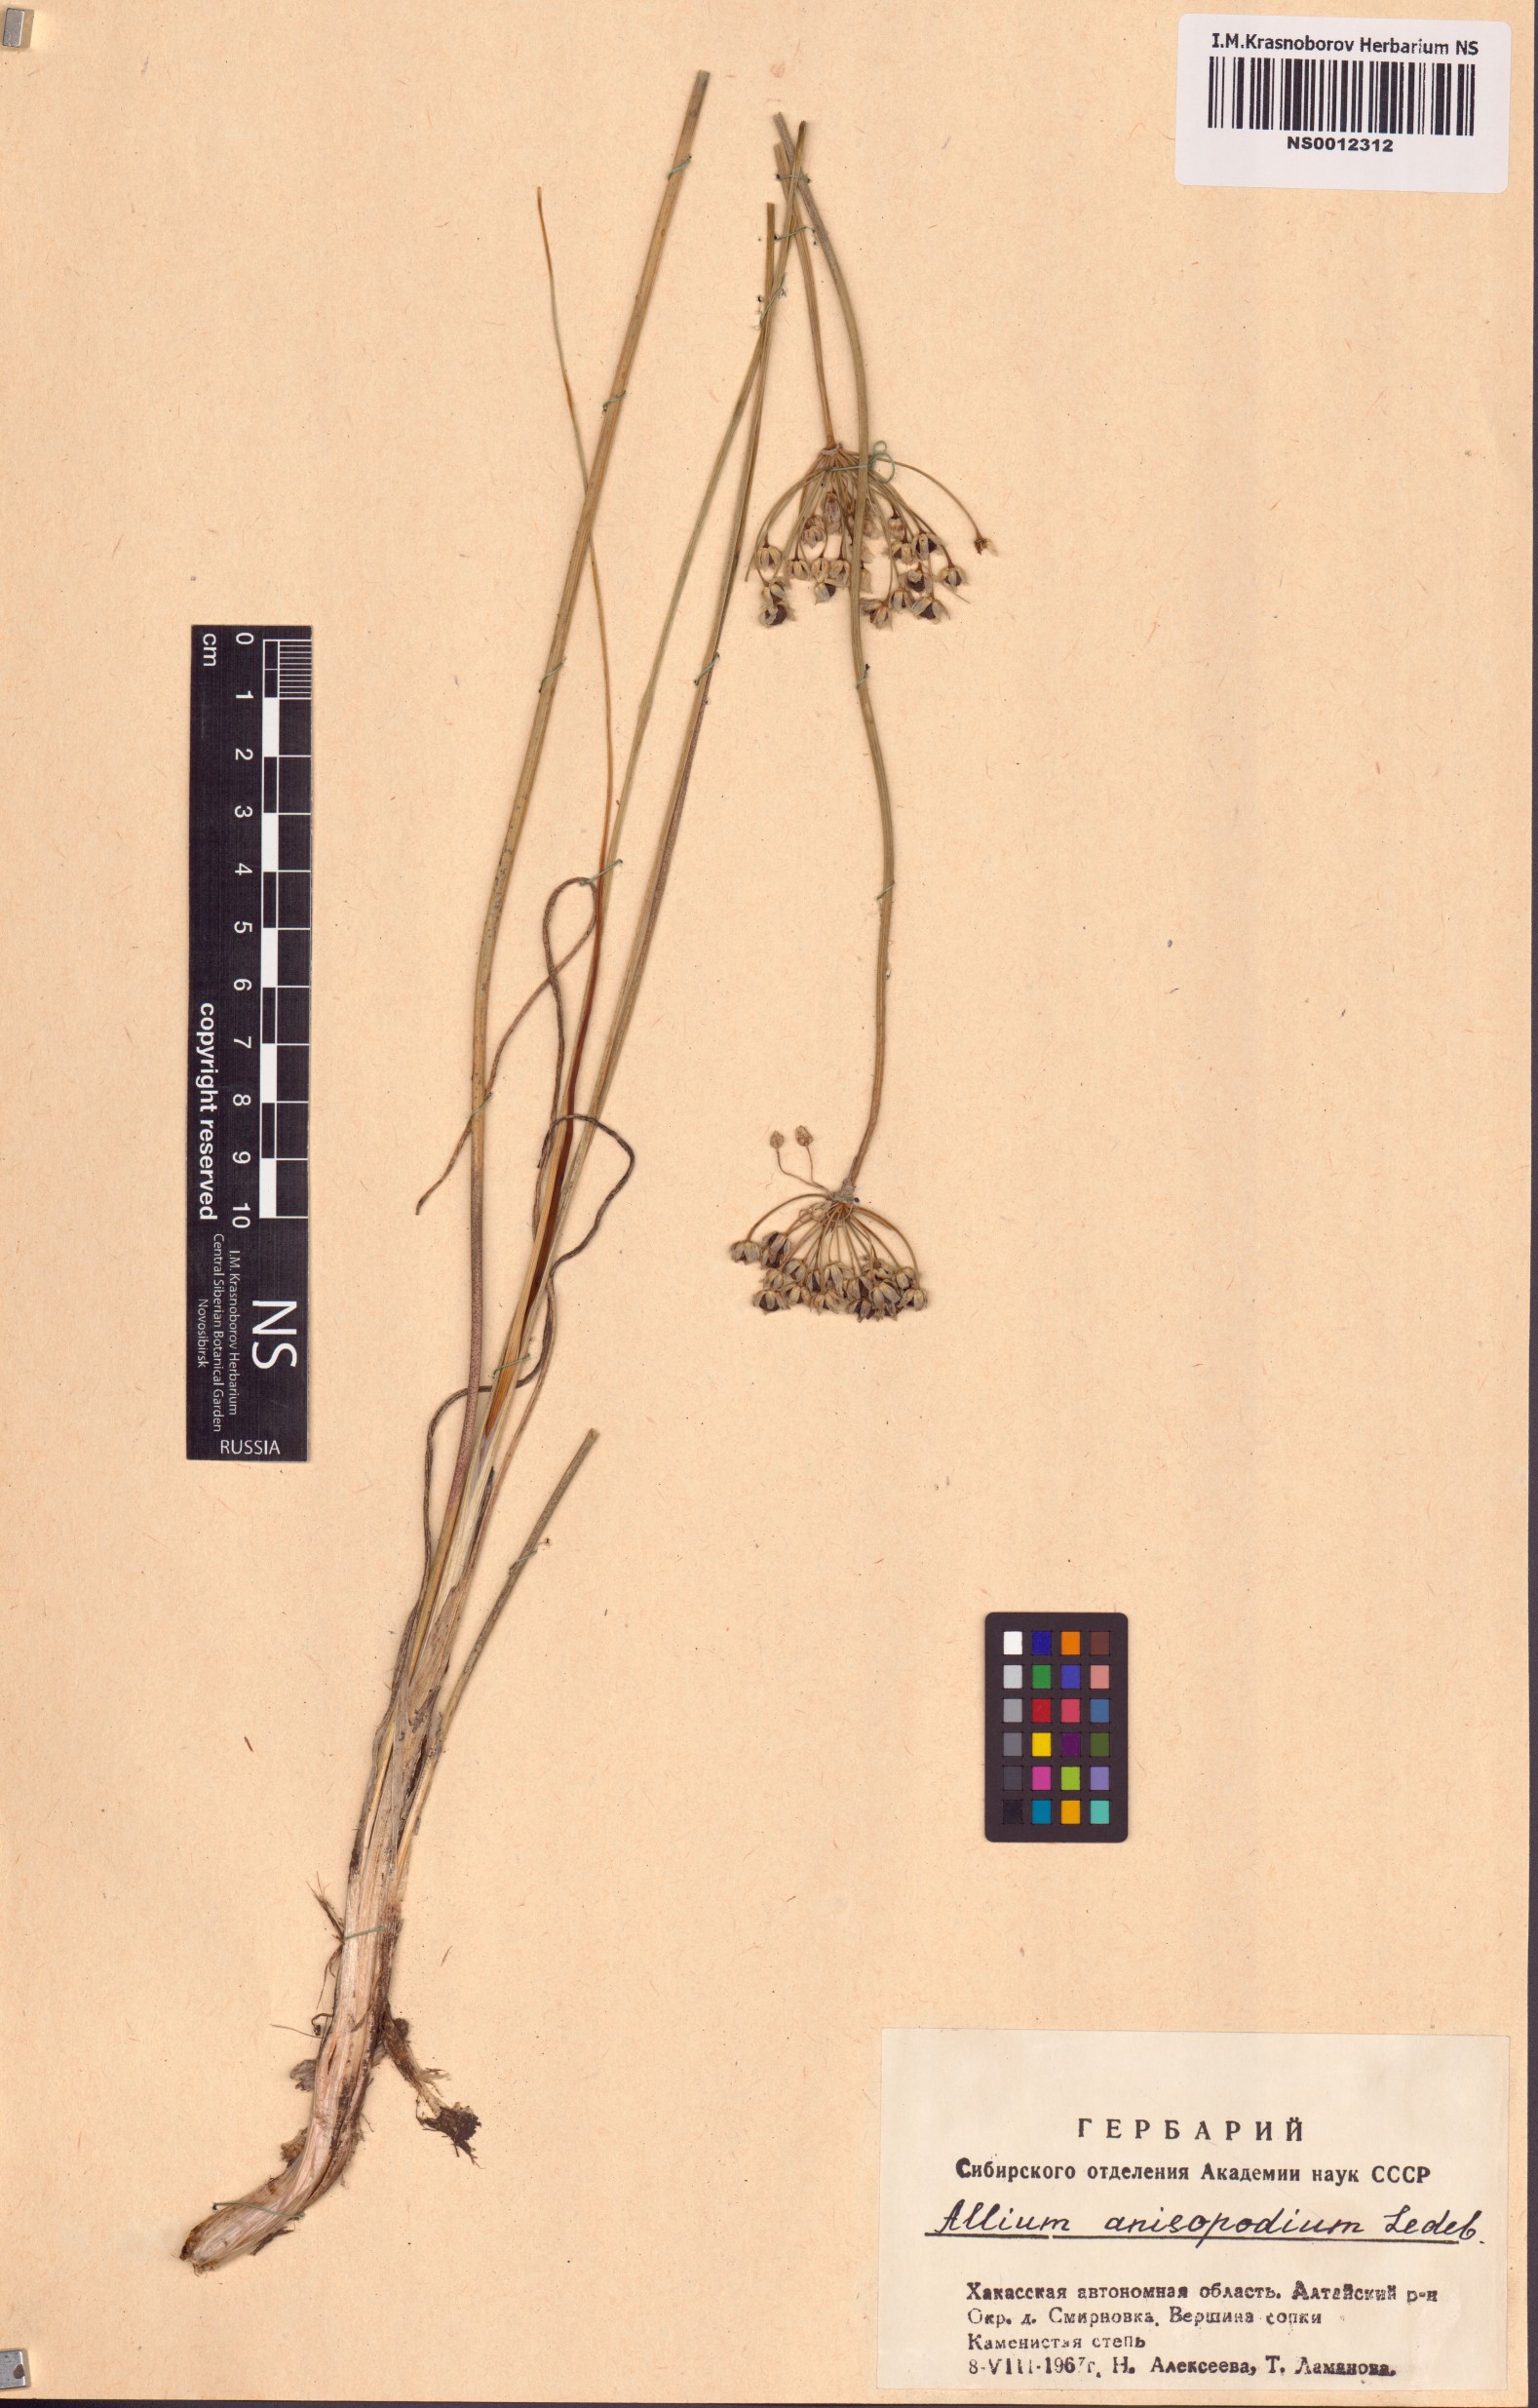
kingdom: Plantae
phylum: Tracheophyta
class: Liliopsida
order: Asparagales
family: Amaryllidaceae
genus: Allium
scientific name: Allium anisopodium
